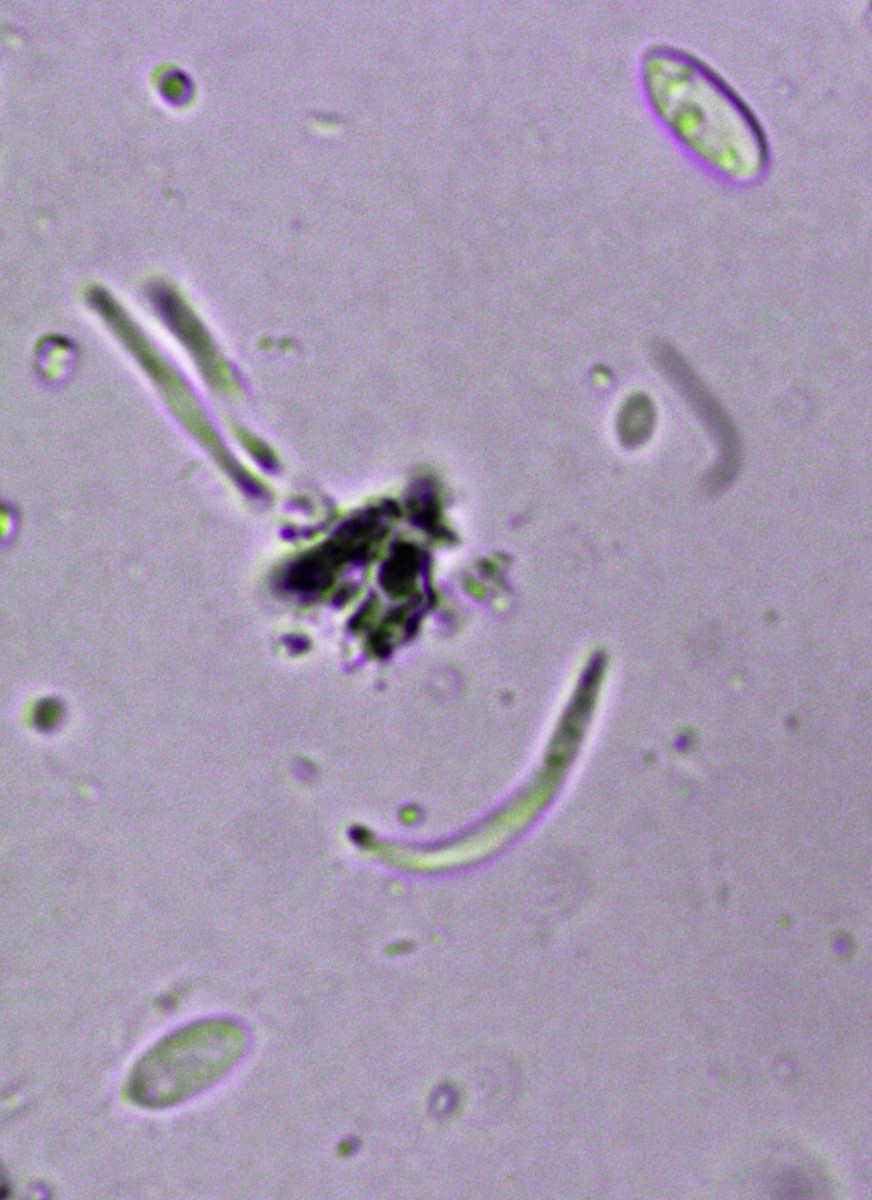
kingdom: Fungi
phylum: Ascomycota
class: Sordariomycetes
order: Diaporthales
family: Diaporthaceae
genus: Mazzantia
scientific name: Mazzantia angelicae
